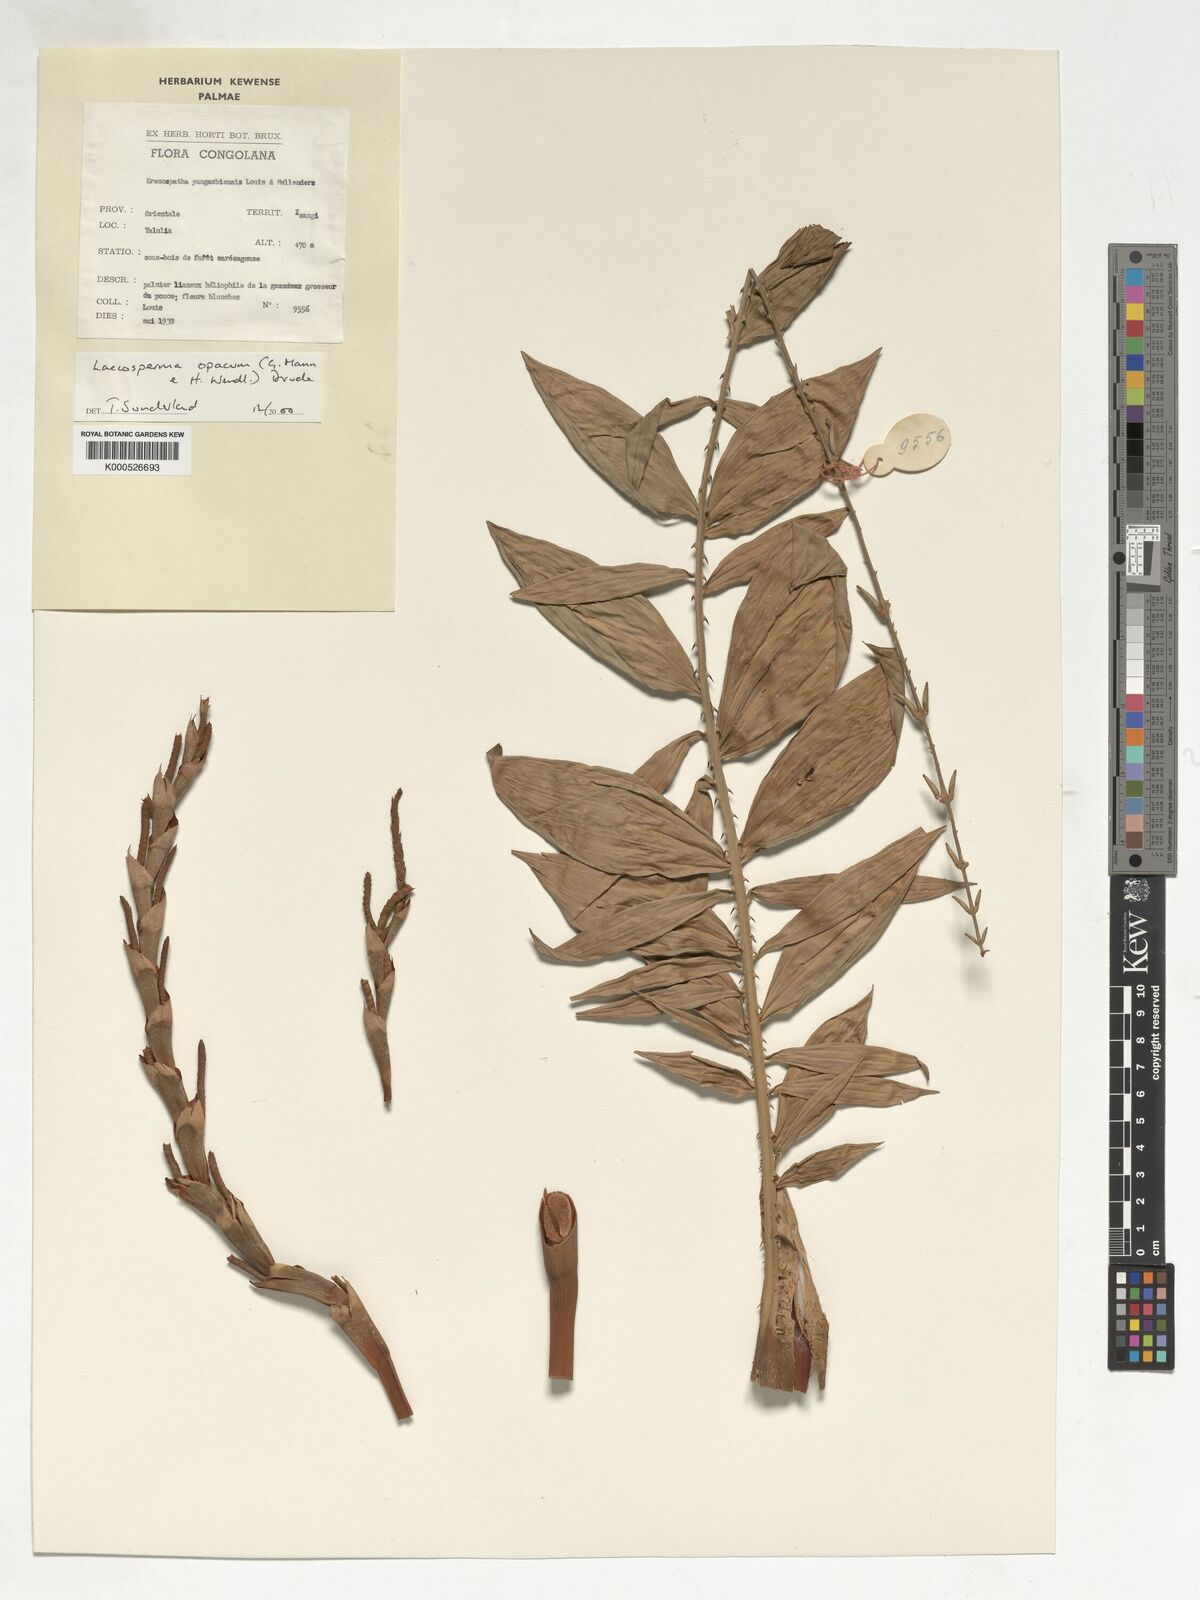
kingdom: Plantae
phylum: Tracheophyta
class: Liliopsida
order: Arecales
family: Arecaceae
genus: Laccosperma
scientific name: Laccosperma opacum
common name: Rattan
